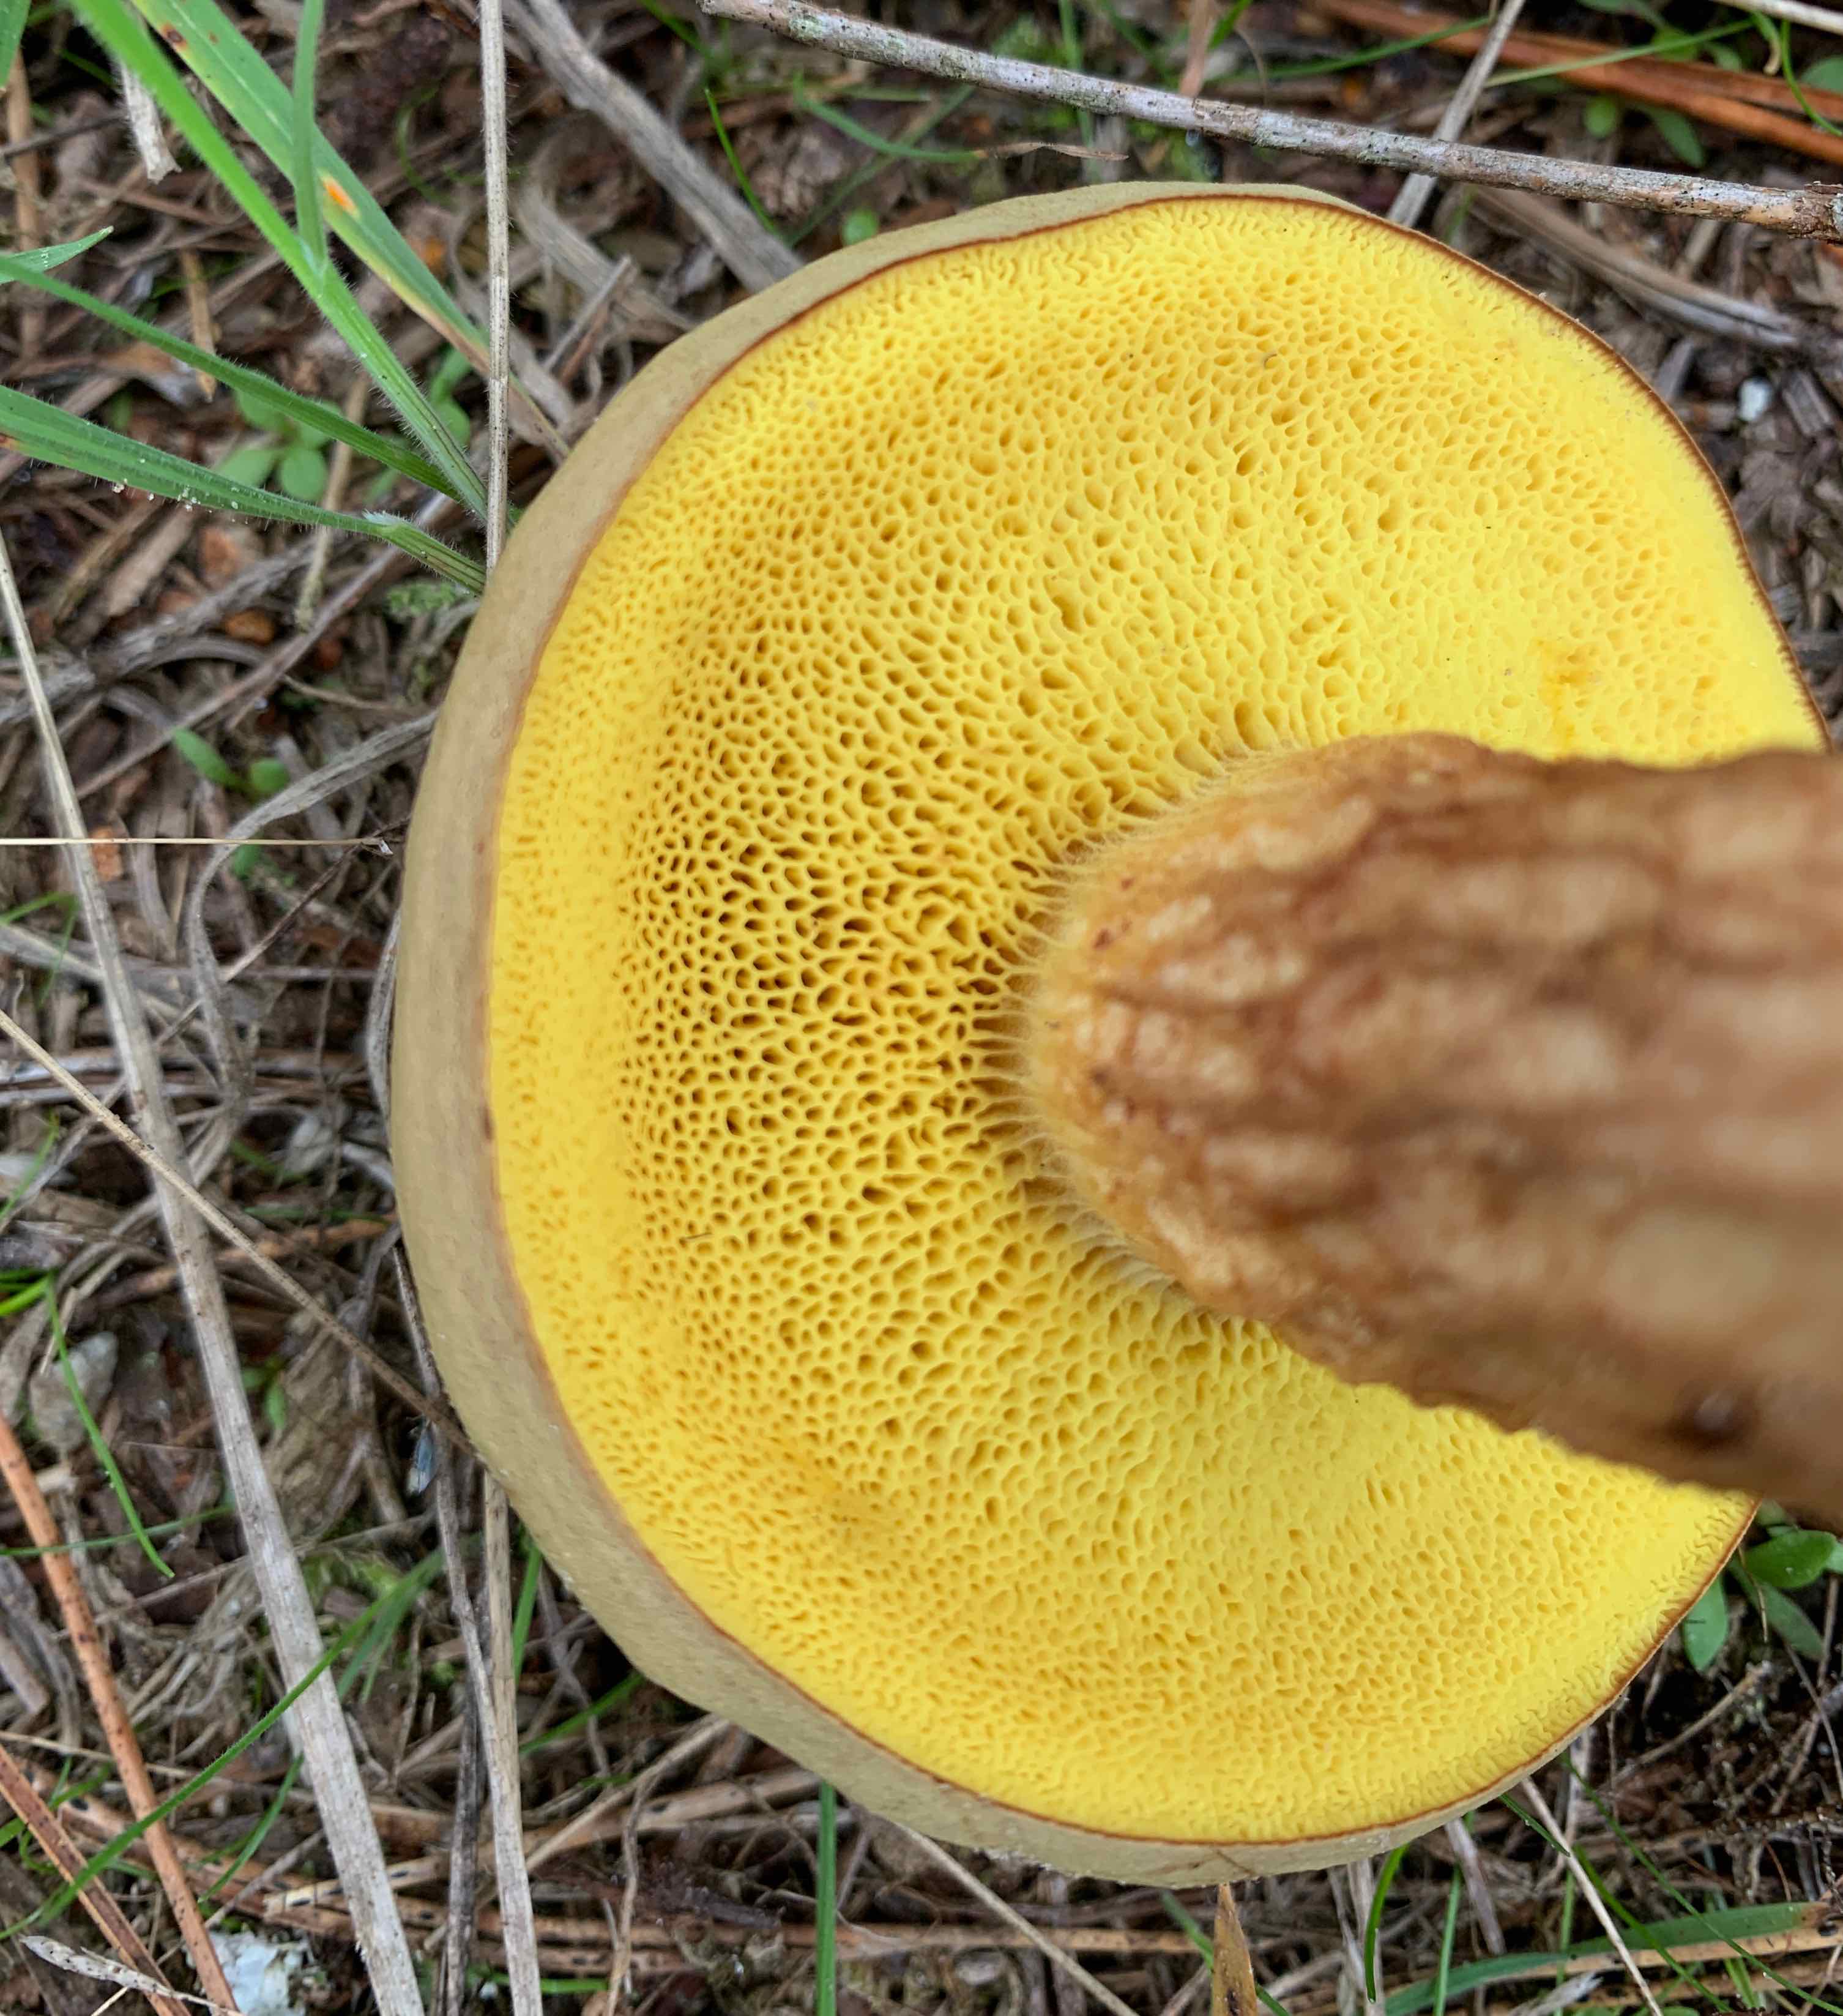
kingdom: Fungi
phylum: Basidiomycota
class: Agaricomycetes
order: Boletales
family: Boletaceae
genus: Xerocomus
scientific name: Xerocomus ferrugineus
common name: vaskeskinds-rørhat
